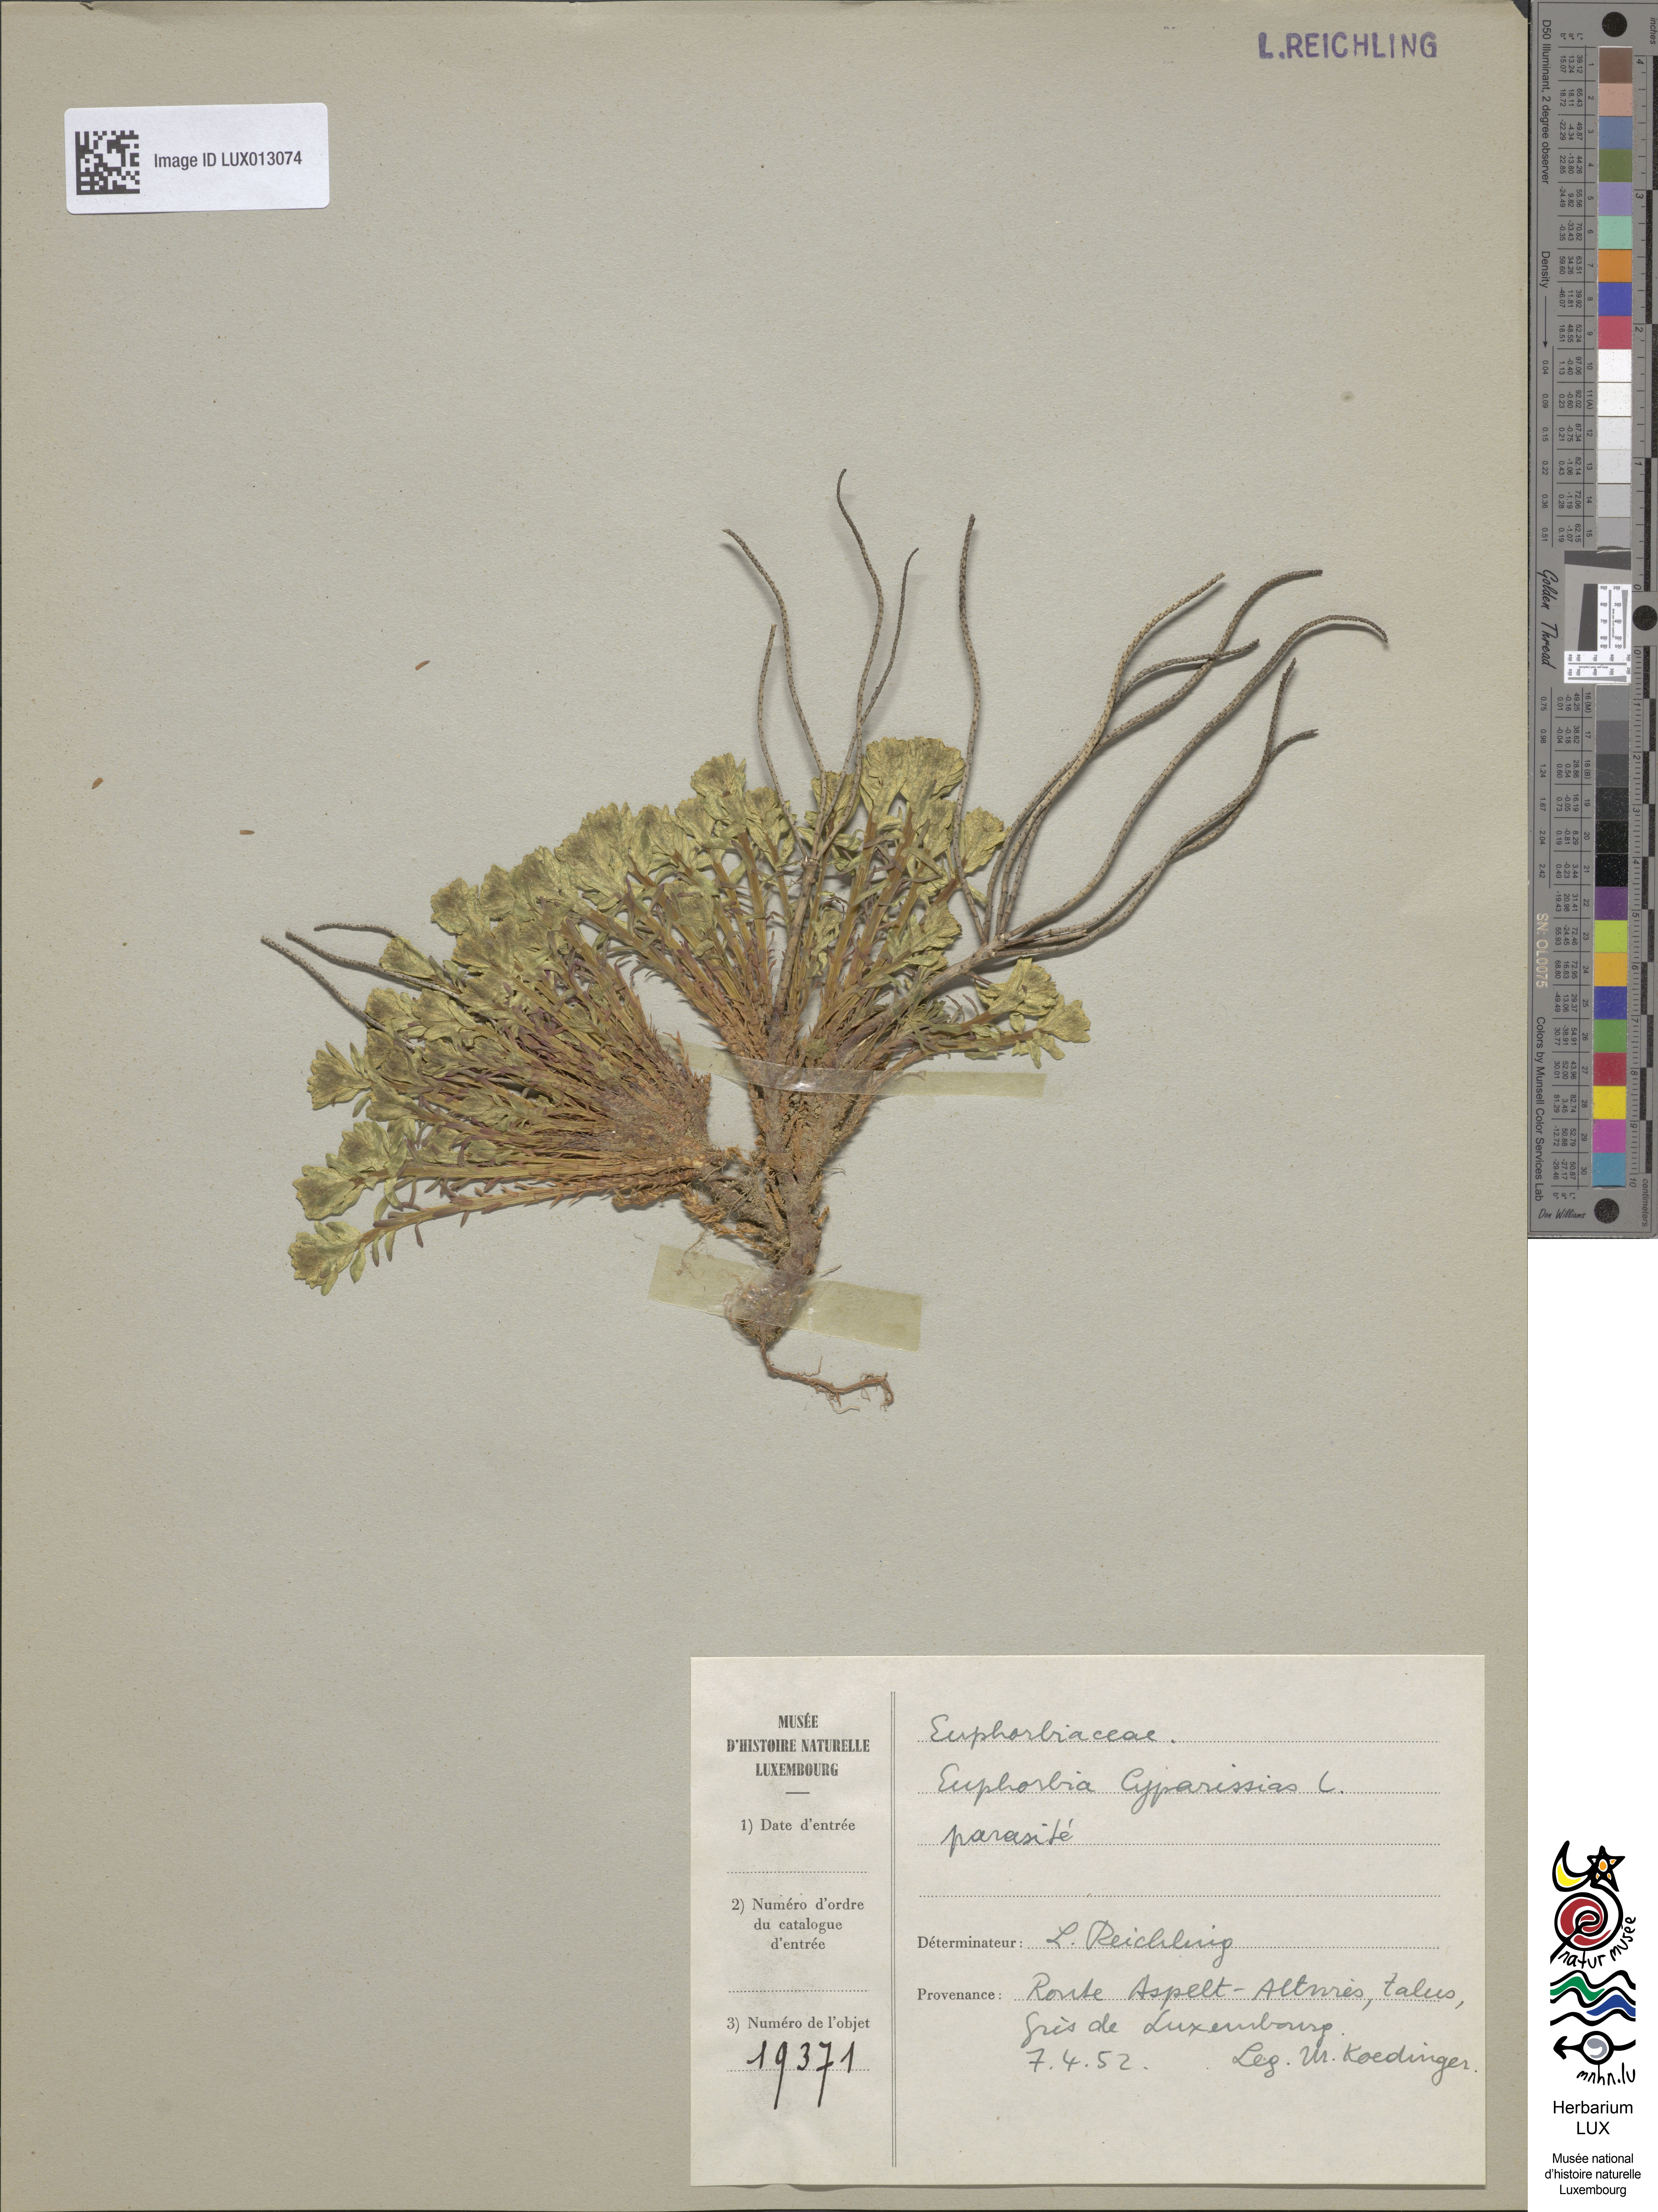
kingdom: Plantae
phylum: Tracheophyta
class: Magnoliopsida
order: Malpighiales
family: Euphorbiaceae
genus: Euphorbia
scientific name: Euphorbia cyparissias
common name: Cypress spurge
